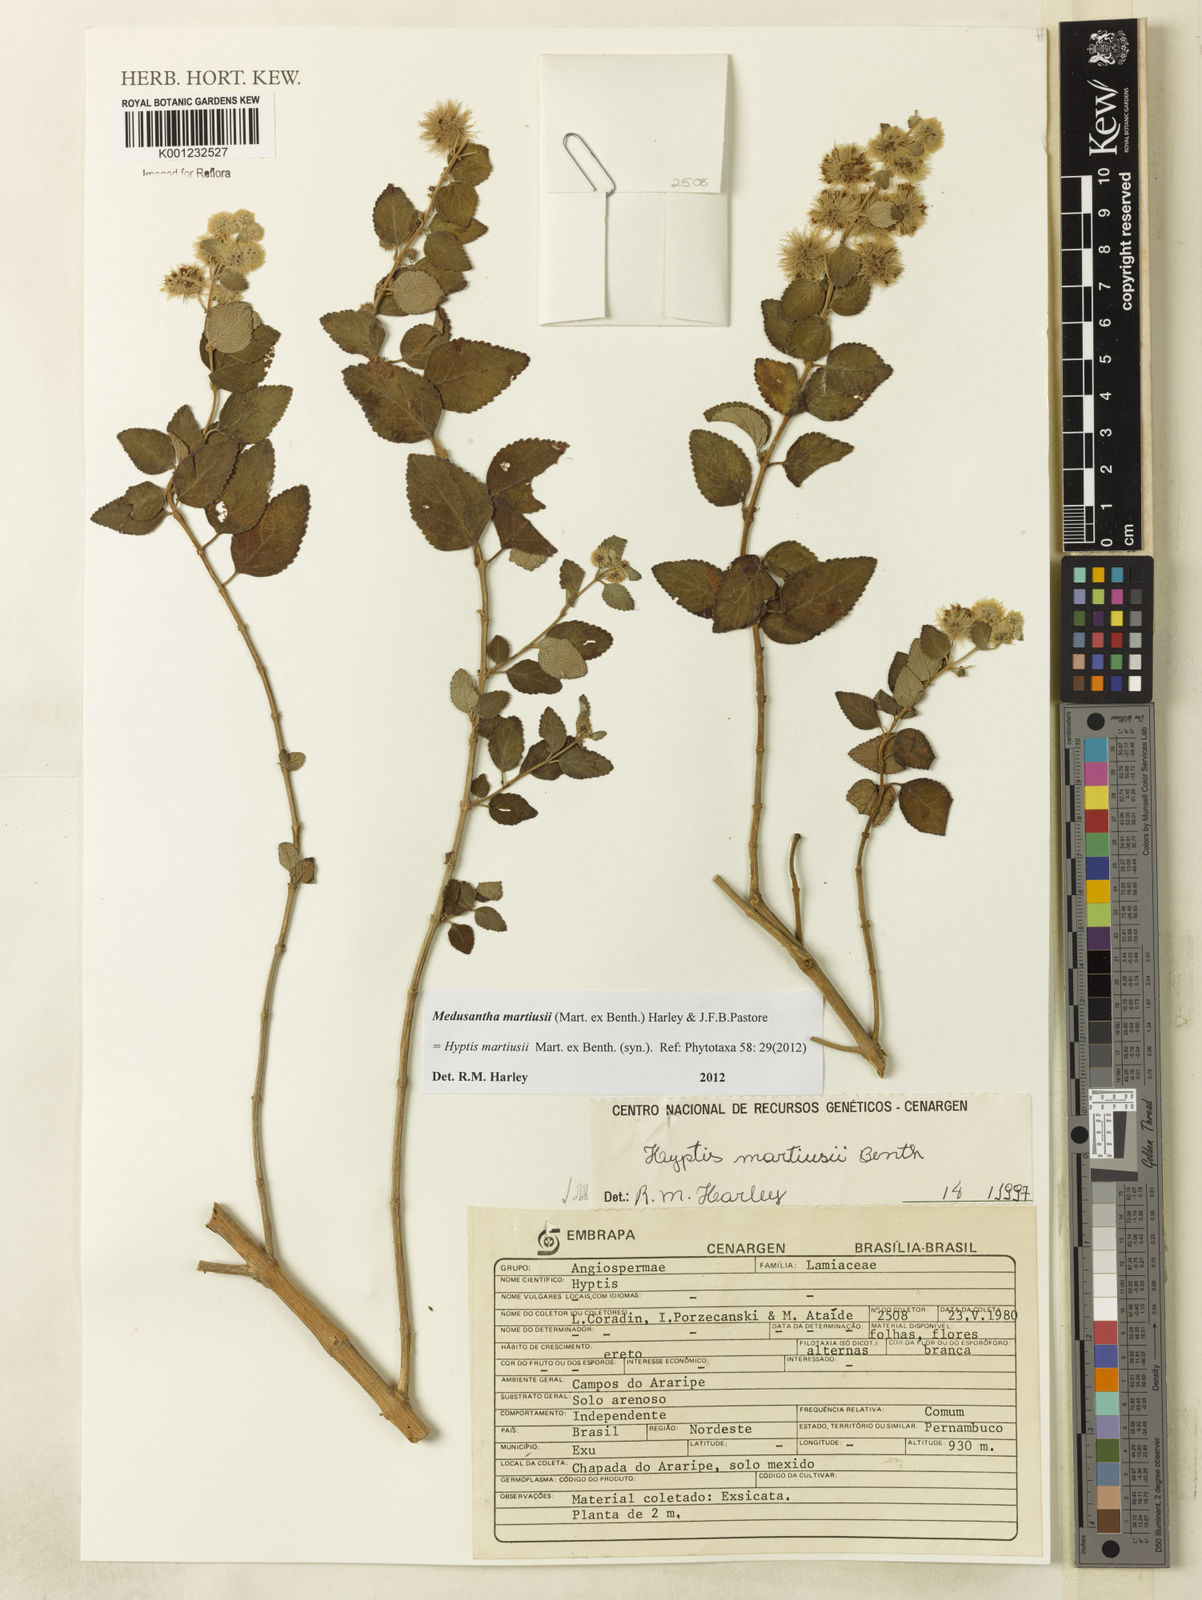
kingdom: Plantae
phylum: Tracheophyta
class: Magnoliopsida
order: Lamiales
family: Lamiaceae
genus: Medusantha
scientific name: Medusantha martiusii
